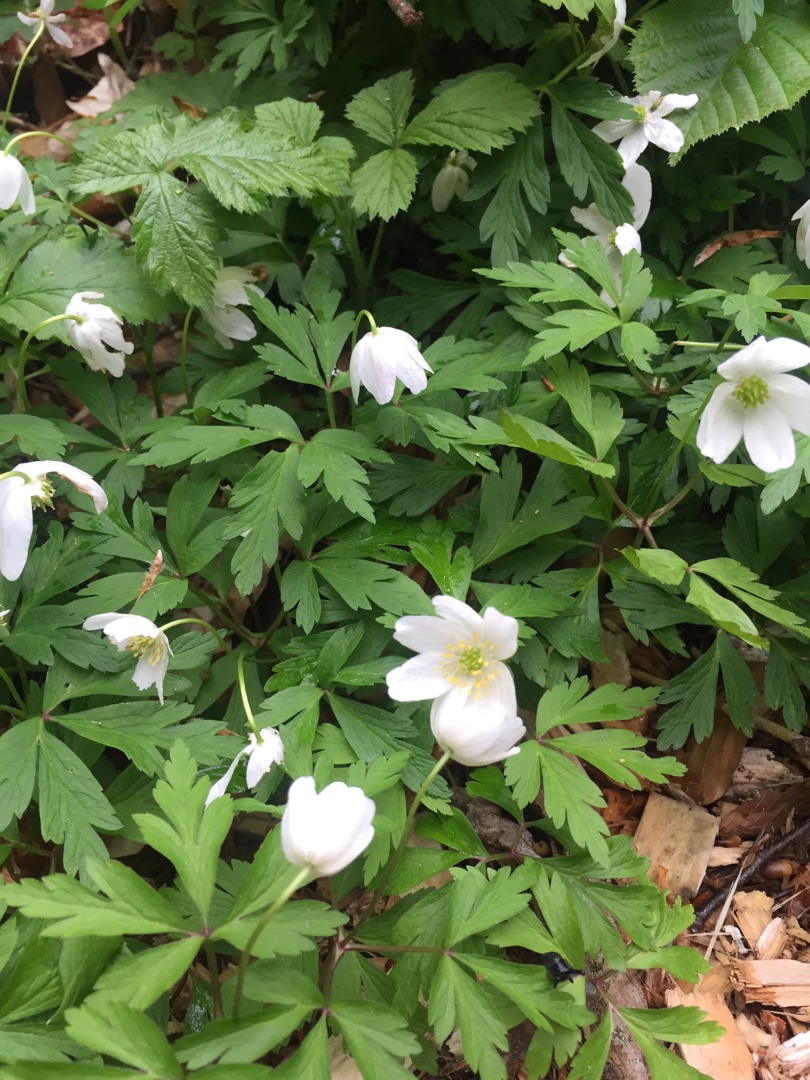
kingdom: Plantae
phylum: Tracheophyta
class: Magnoliopsida
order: Ranunculales
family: Ranunculaceae
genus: Anemone
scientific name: Anemone nemorosa
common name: Hvid anemone
